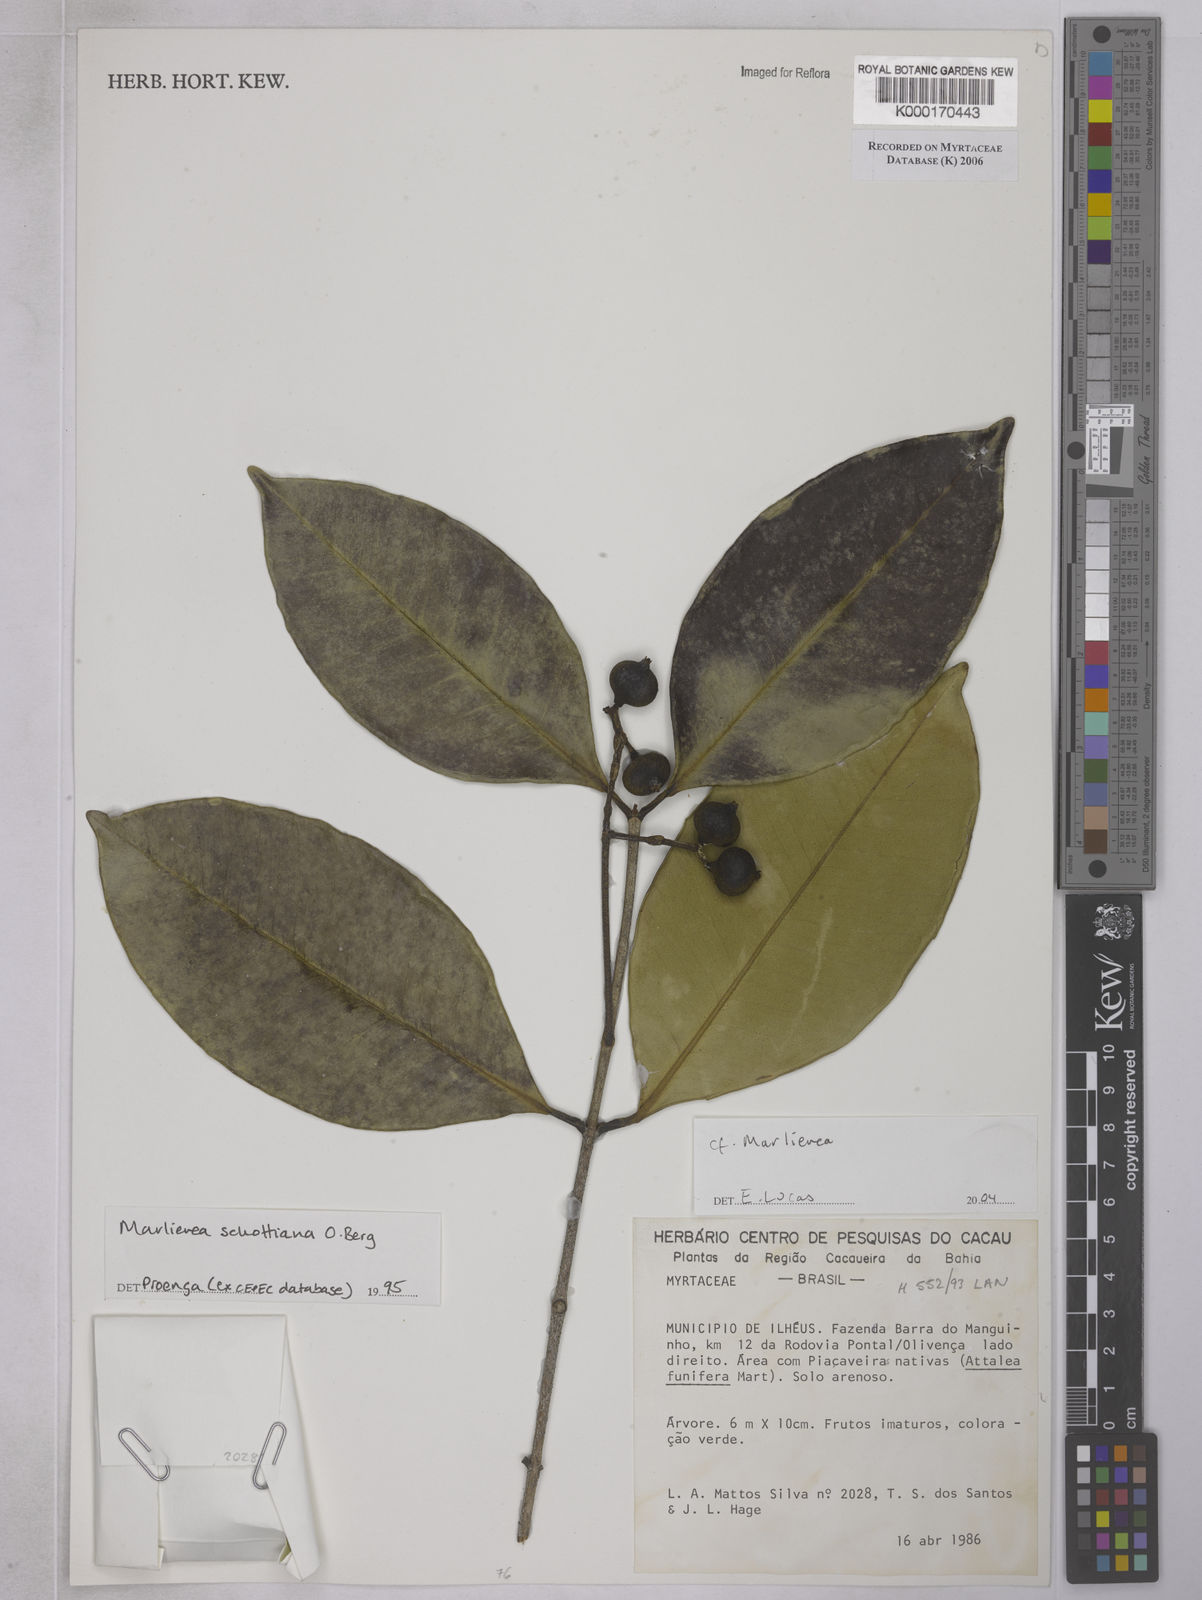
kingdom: Plantae
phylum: Tracheophyta
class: Magnoliopsida
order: Myrtales
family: Myrtaceae
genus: Marlierea
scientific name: Marlierea
